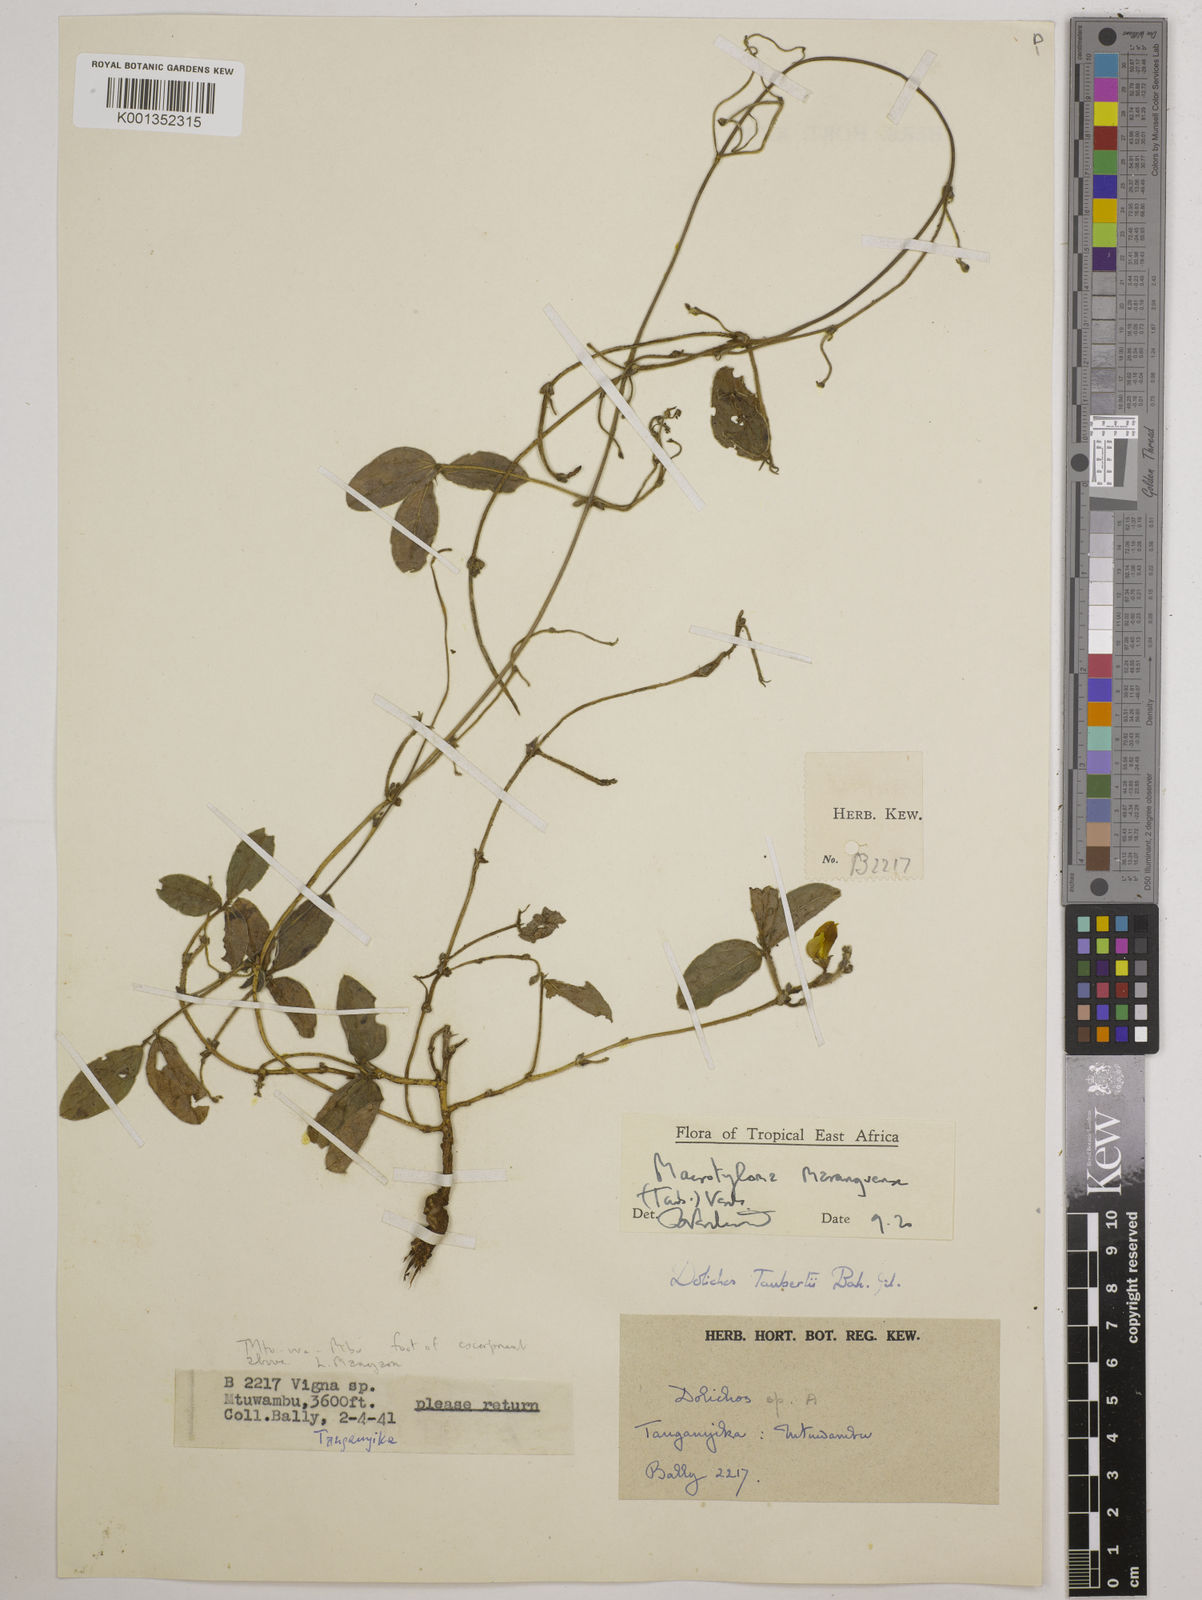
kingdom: Plantae
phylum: Tracheophyta
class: Magnoliopsida
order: Fabales
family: Fabaceae
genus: Macrotyloma
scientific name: Macrotyloma maranguense
